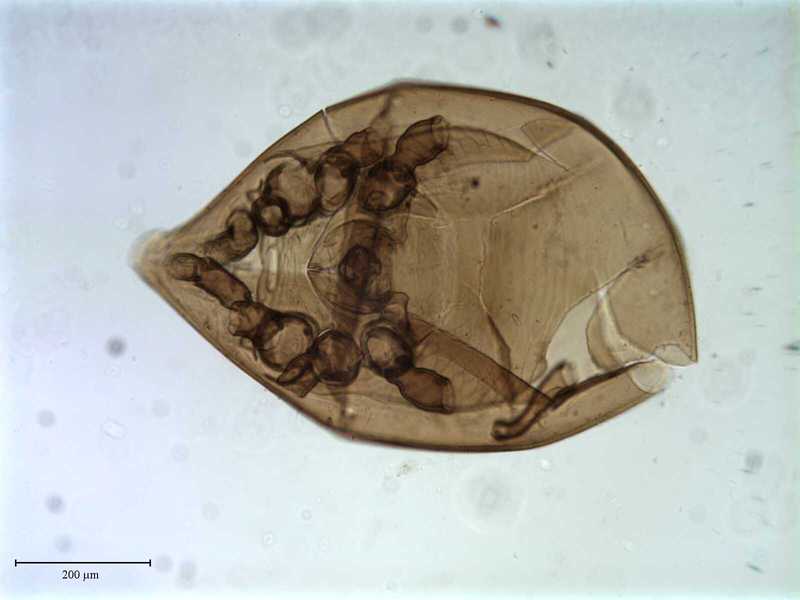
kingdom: Animalia
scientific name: Animalia
